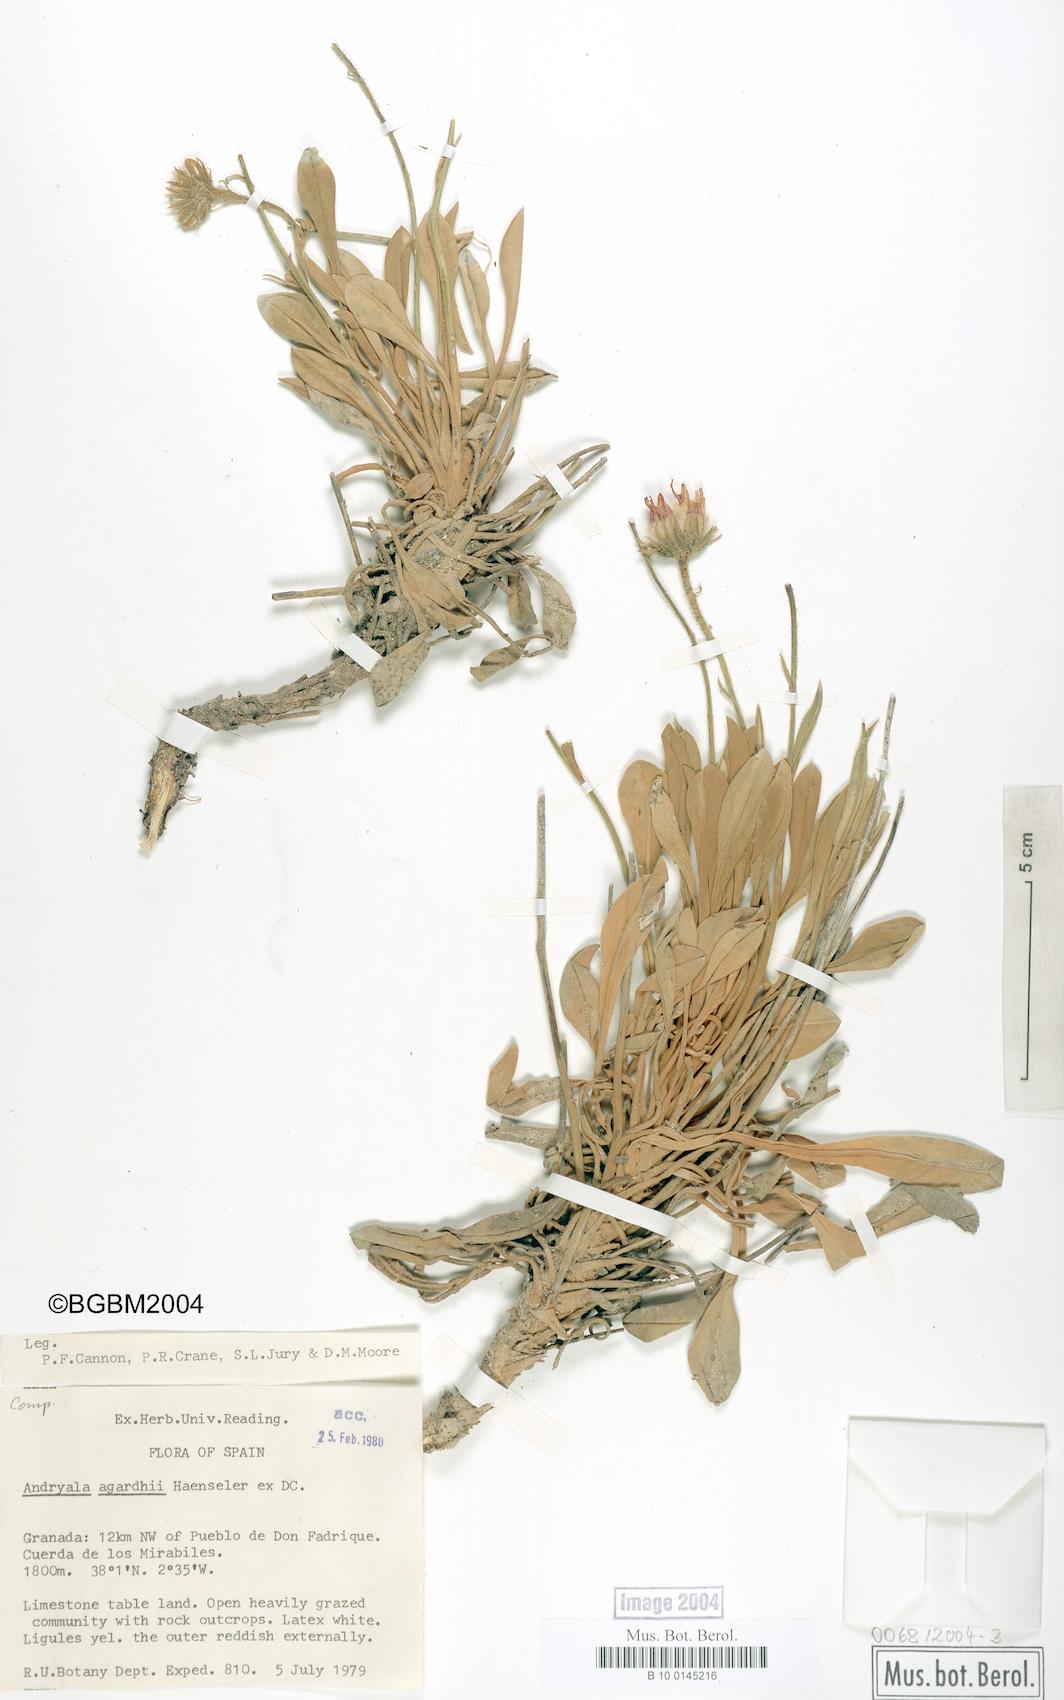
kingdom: Plantae
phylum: Tracheophyta
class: Magnoliopsida
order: Asterales
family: Asteraceae
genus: Andryala
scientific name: Andryala agardhii
